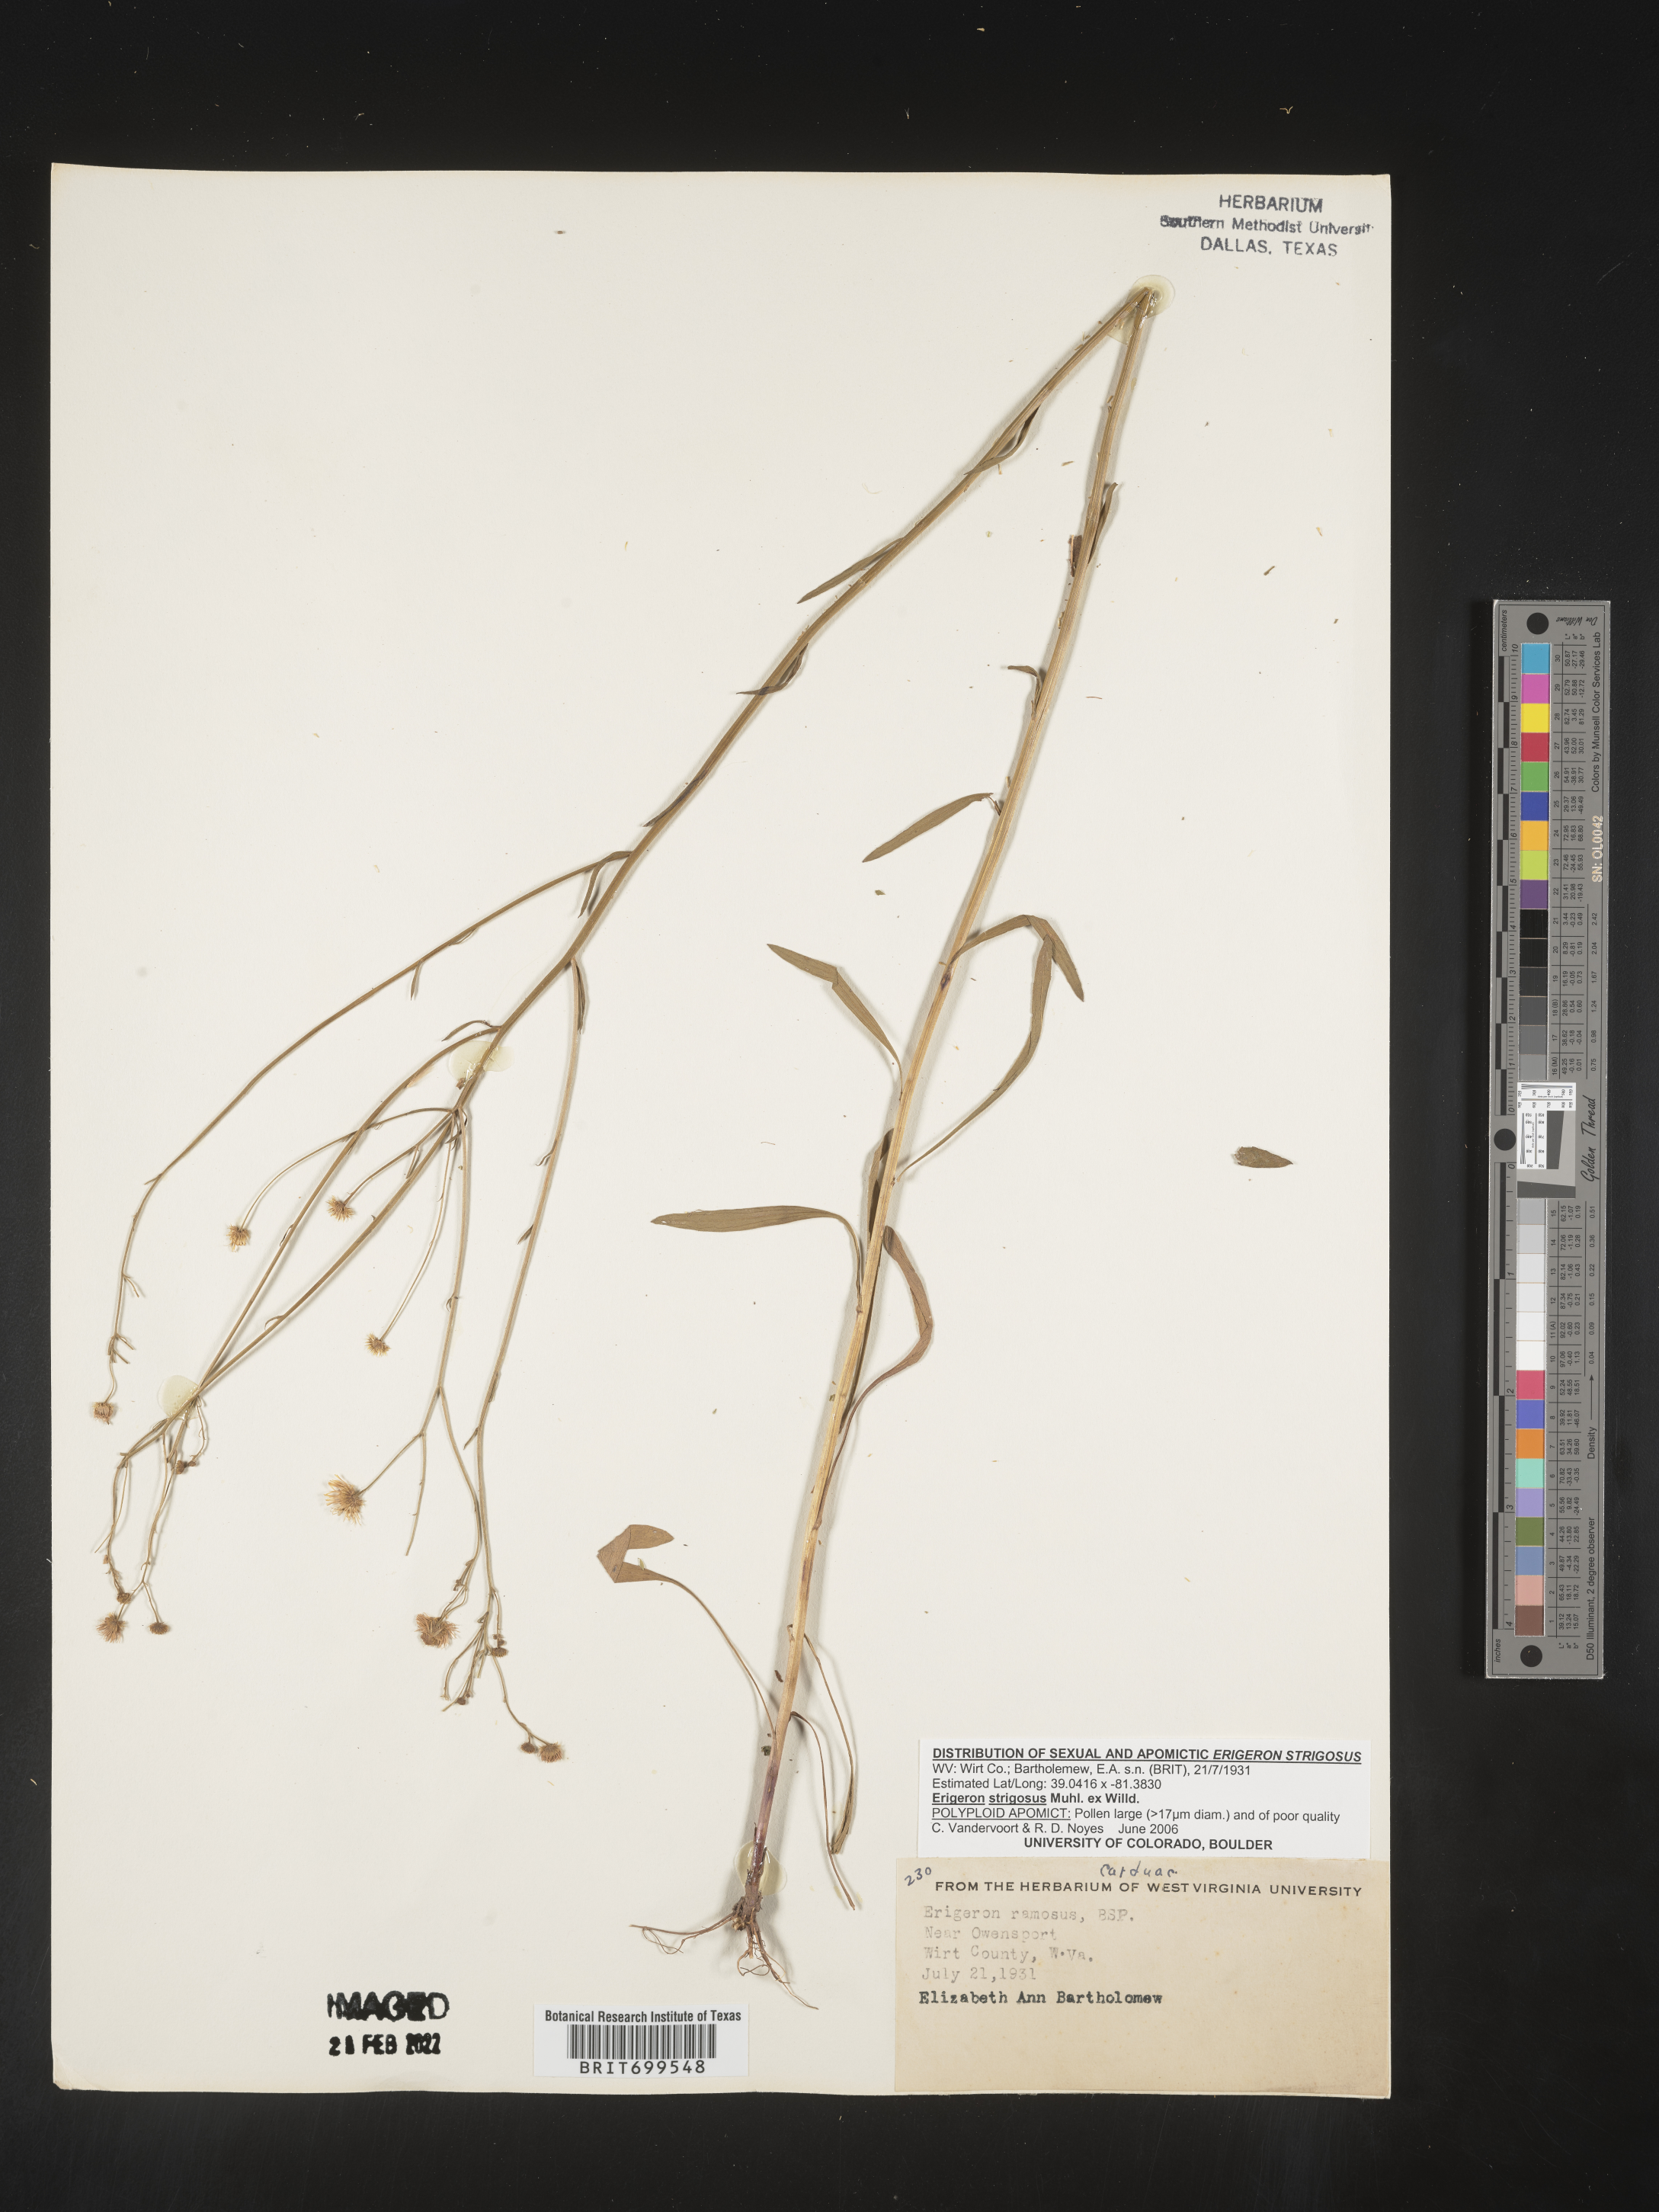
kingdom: Plantae
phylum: Tracheophyta
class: Magnoliopsida
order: Asterales
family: Asteraceae
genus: Erigeron
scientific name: Erigeron strigosus
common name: Common eastern fleabane
